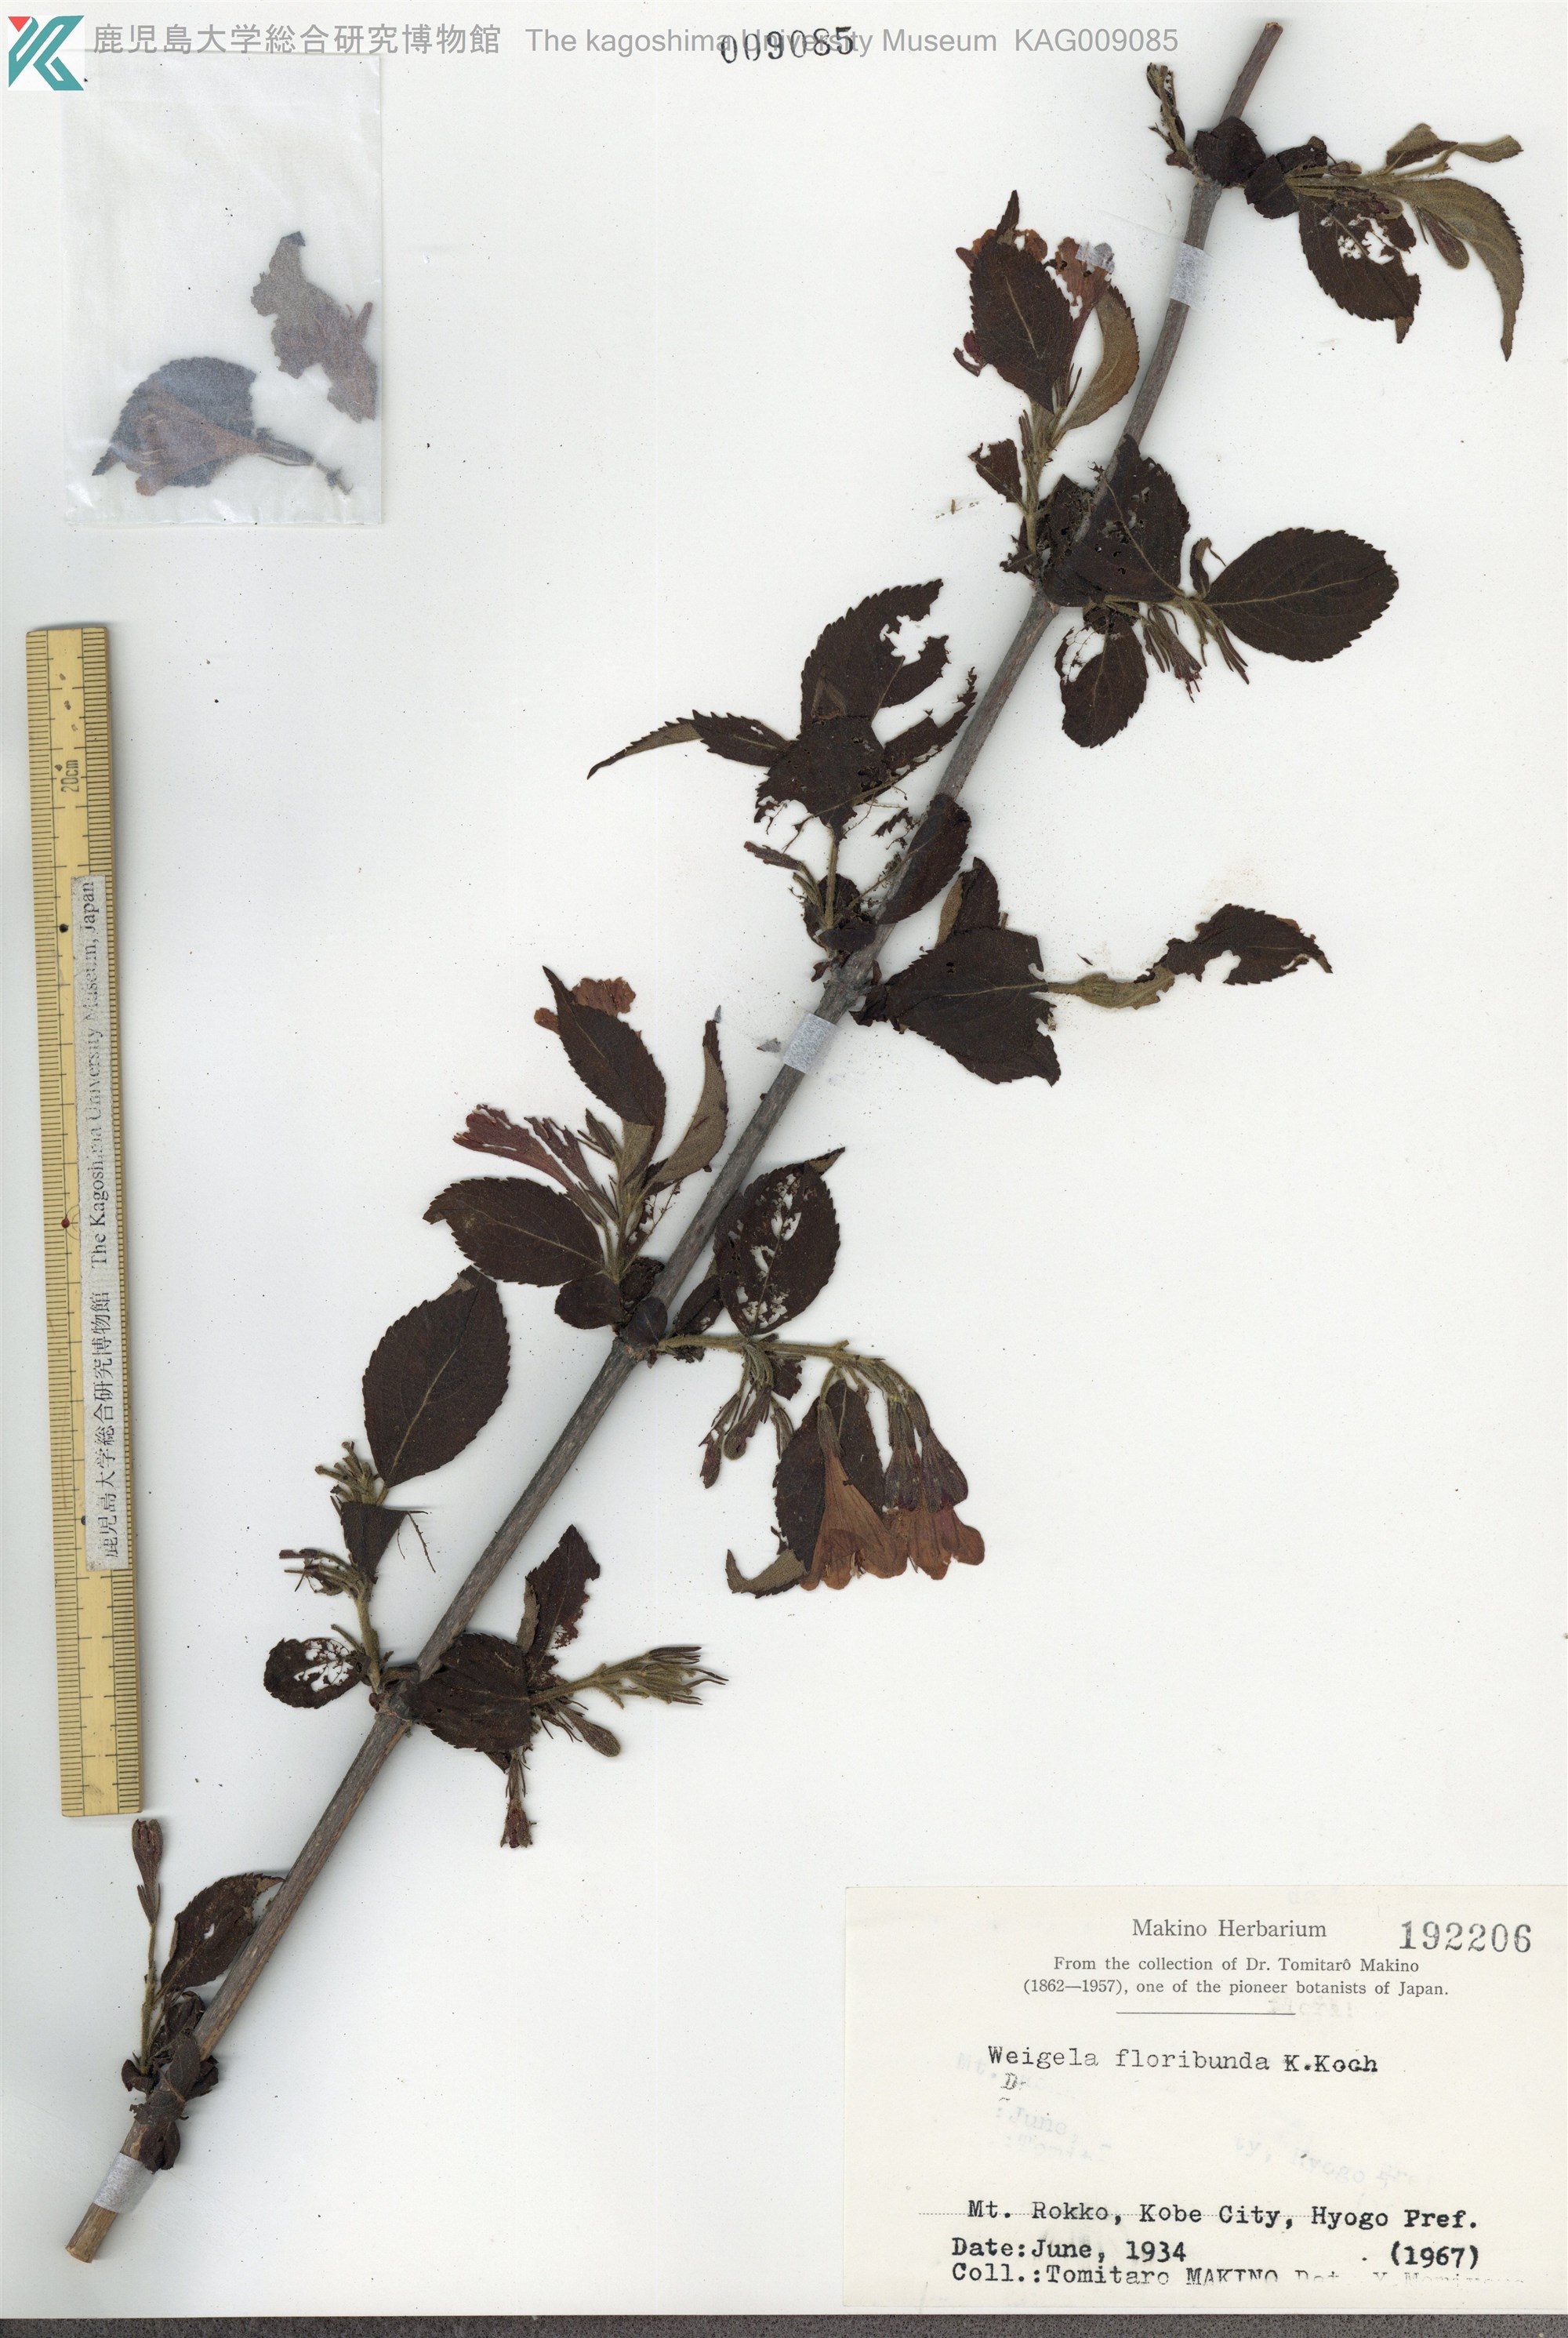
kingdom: Plantae
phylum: Tracheophyta
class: Magnoliopsida
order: Dipsacales
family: Caprifoliaceae
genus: Weigela
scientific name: Weigela floribunda
